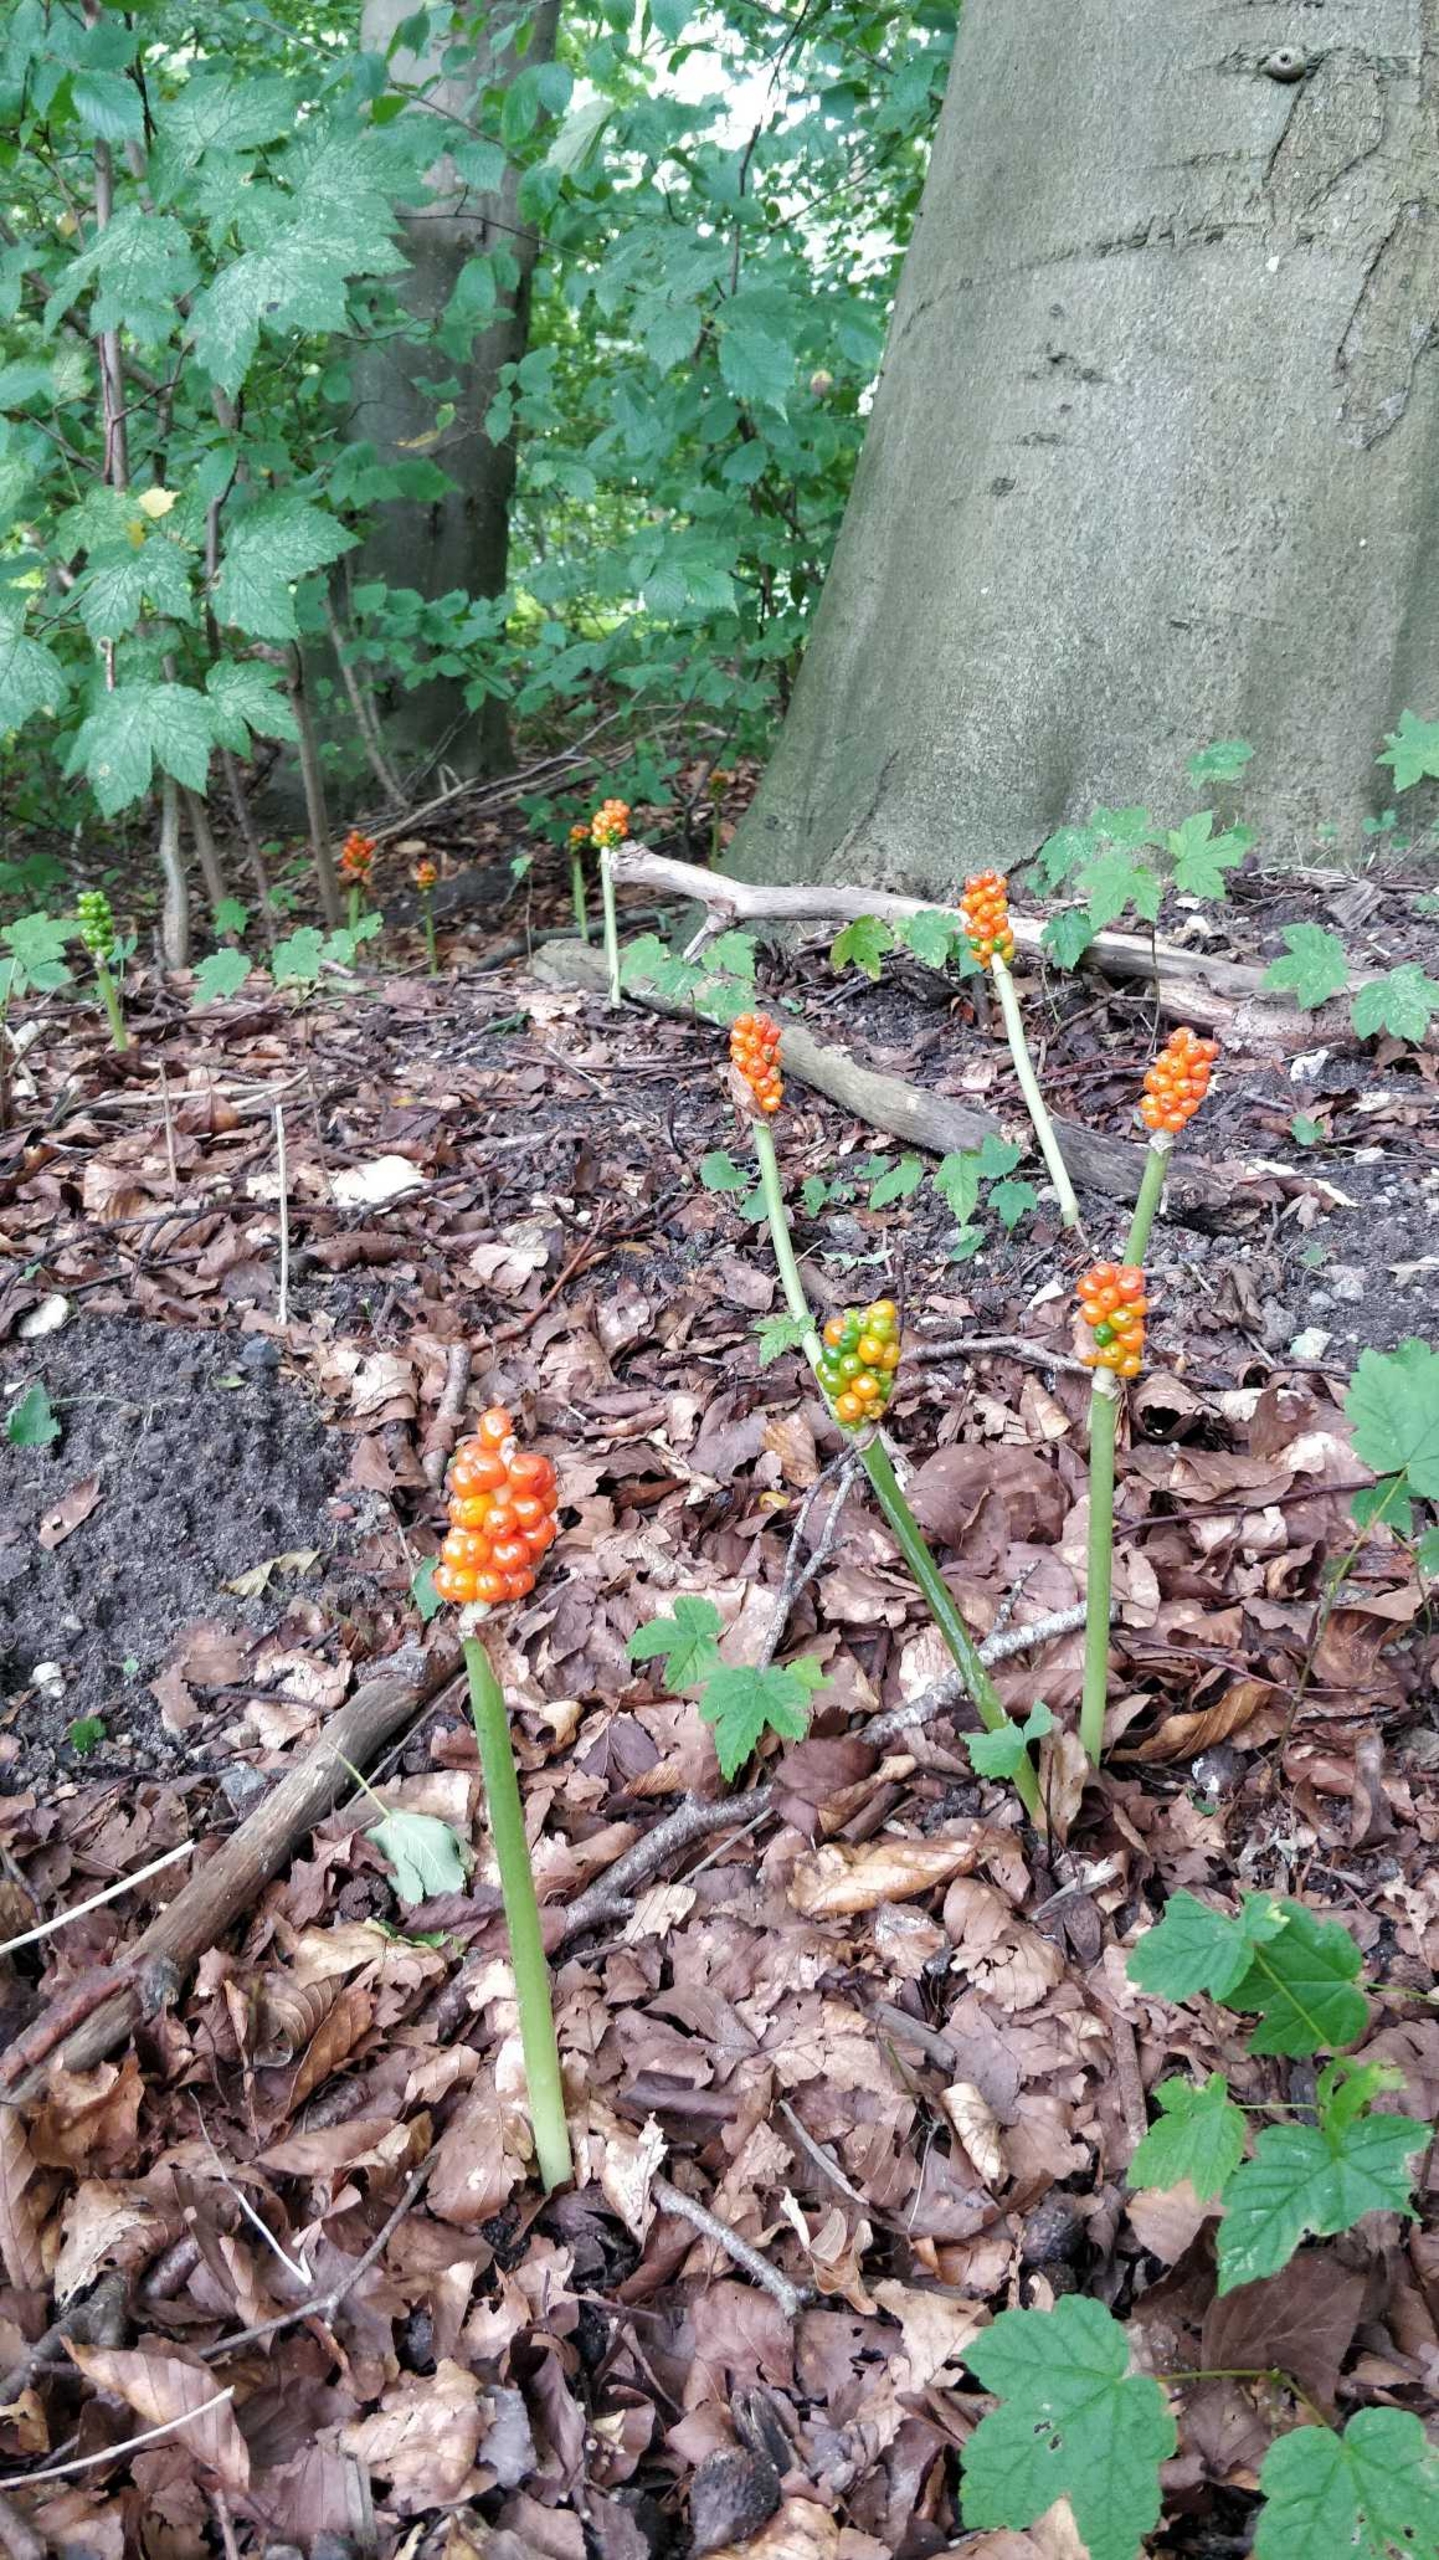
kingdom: Plantae
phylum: Tracheophyta
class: Liliopsida
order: Alismatales
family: Araceae
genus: Arum
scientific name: Arum
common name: Arumslægten
